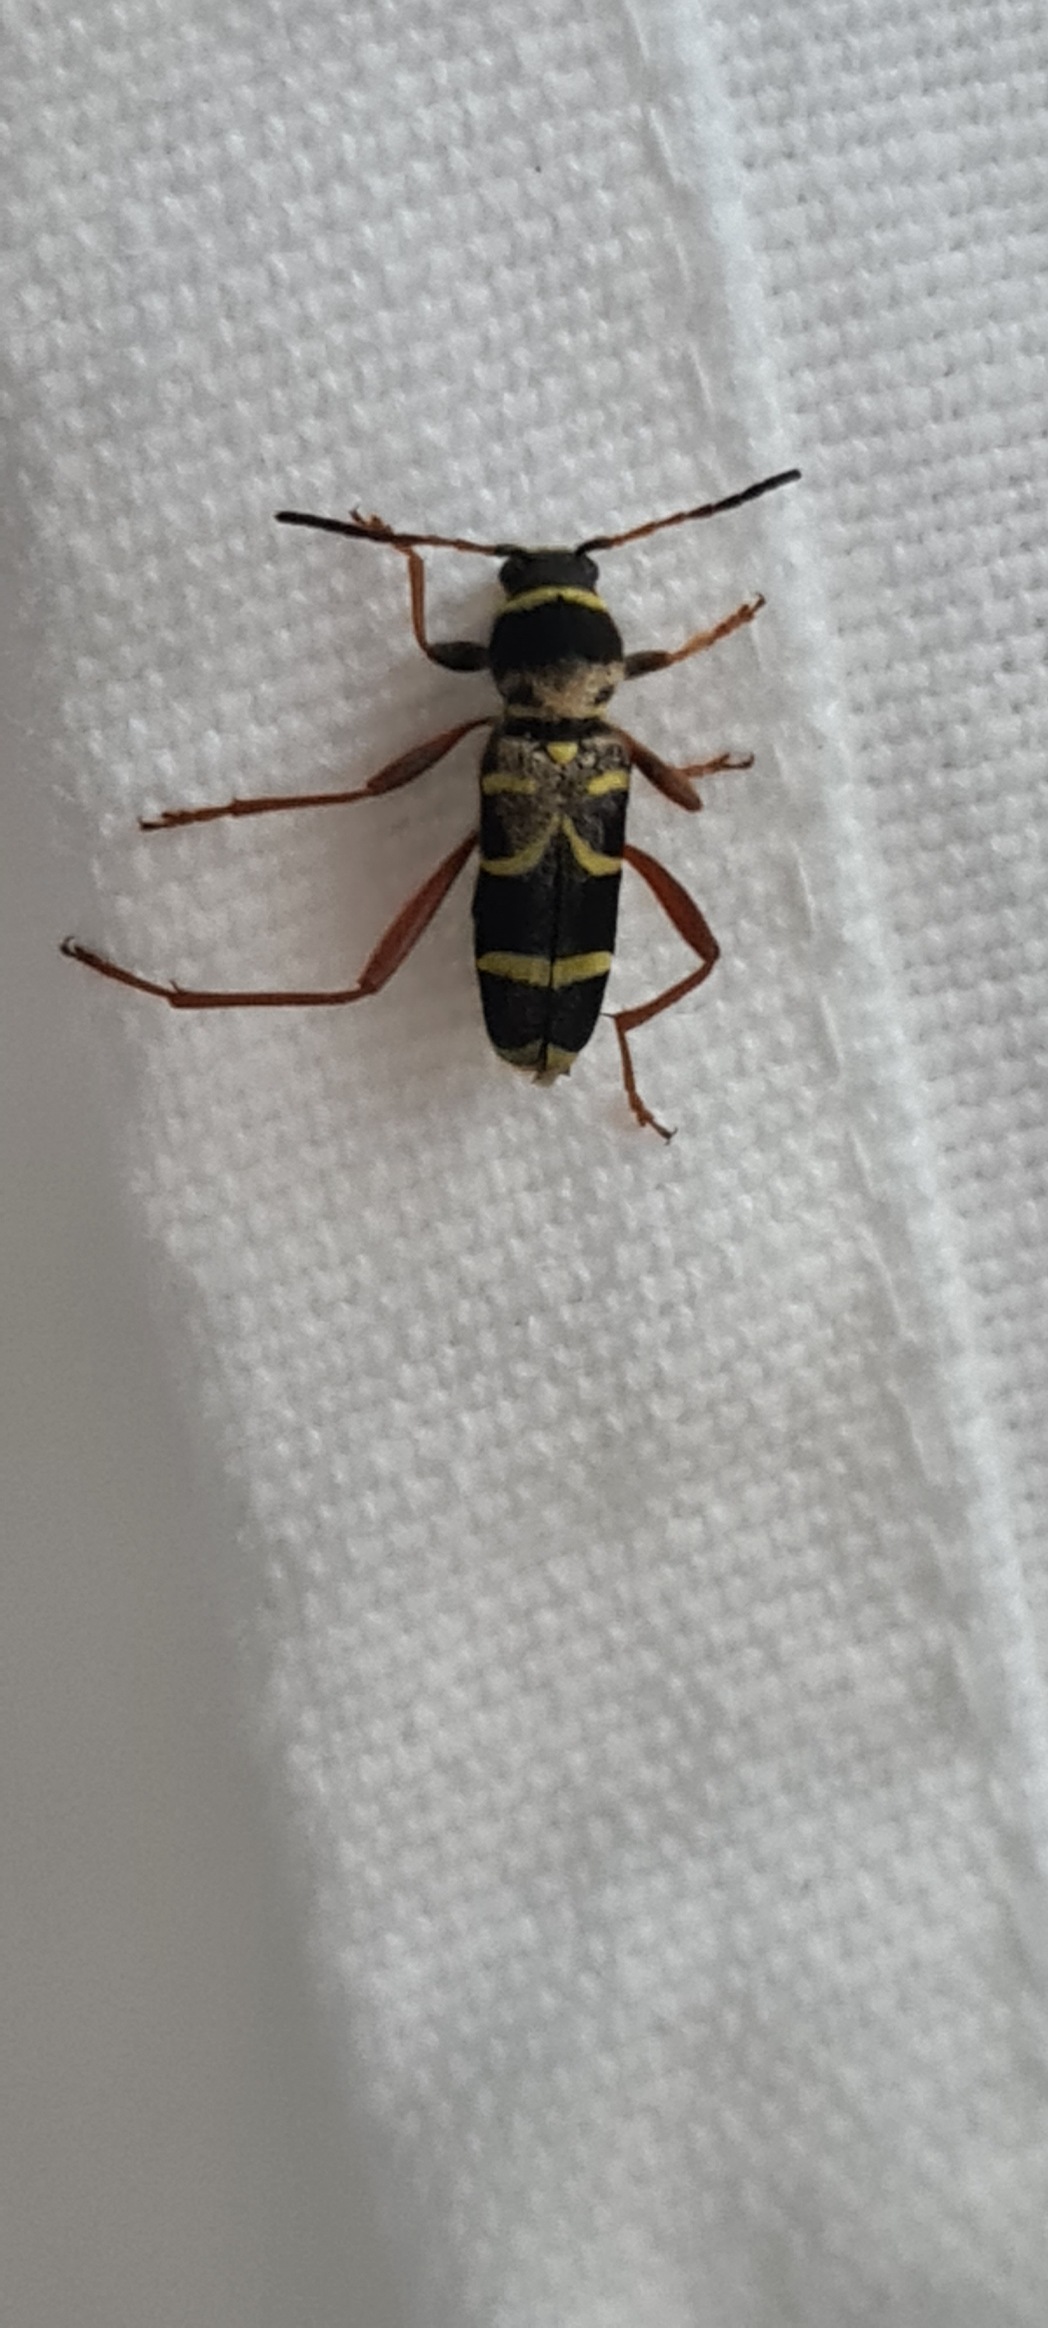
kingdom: Animalia
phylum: Arthropoda
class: Insecta
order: Coleoptera
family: Cerambycidae
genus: Clytus
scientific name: Clytus arietis
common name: Lille hvepsebuk
